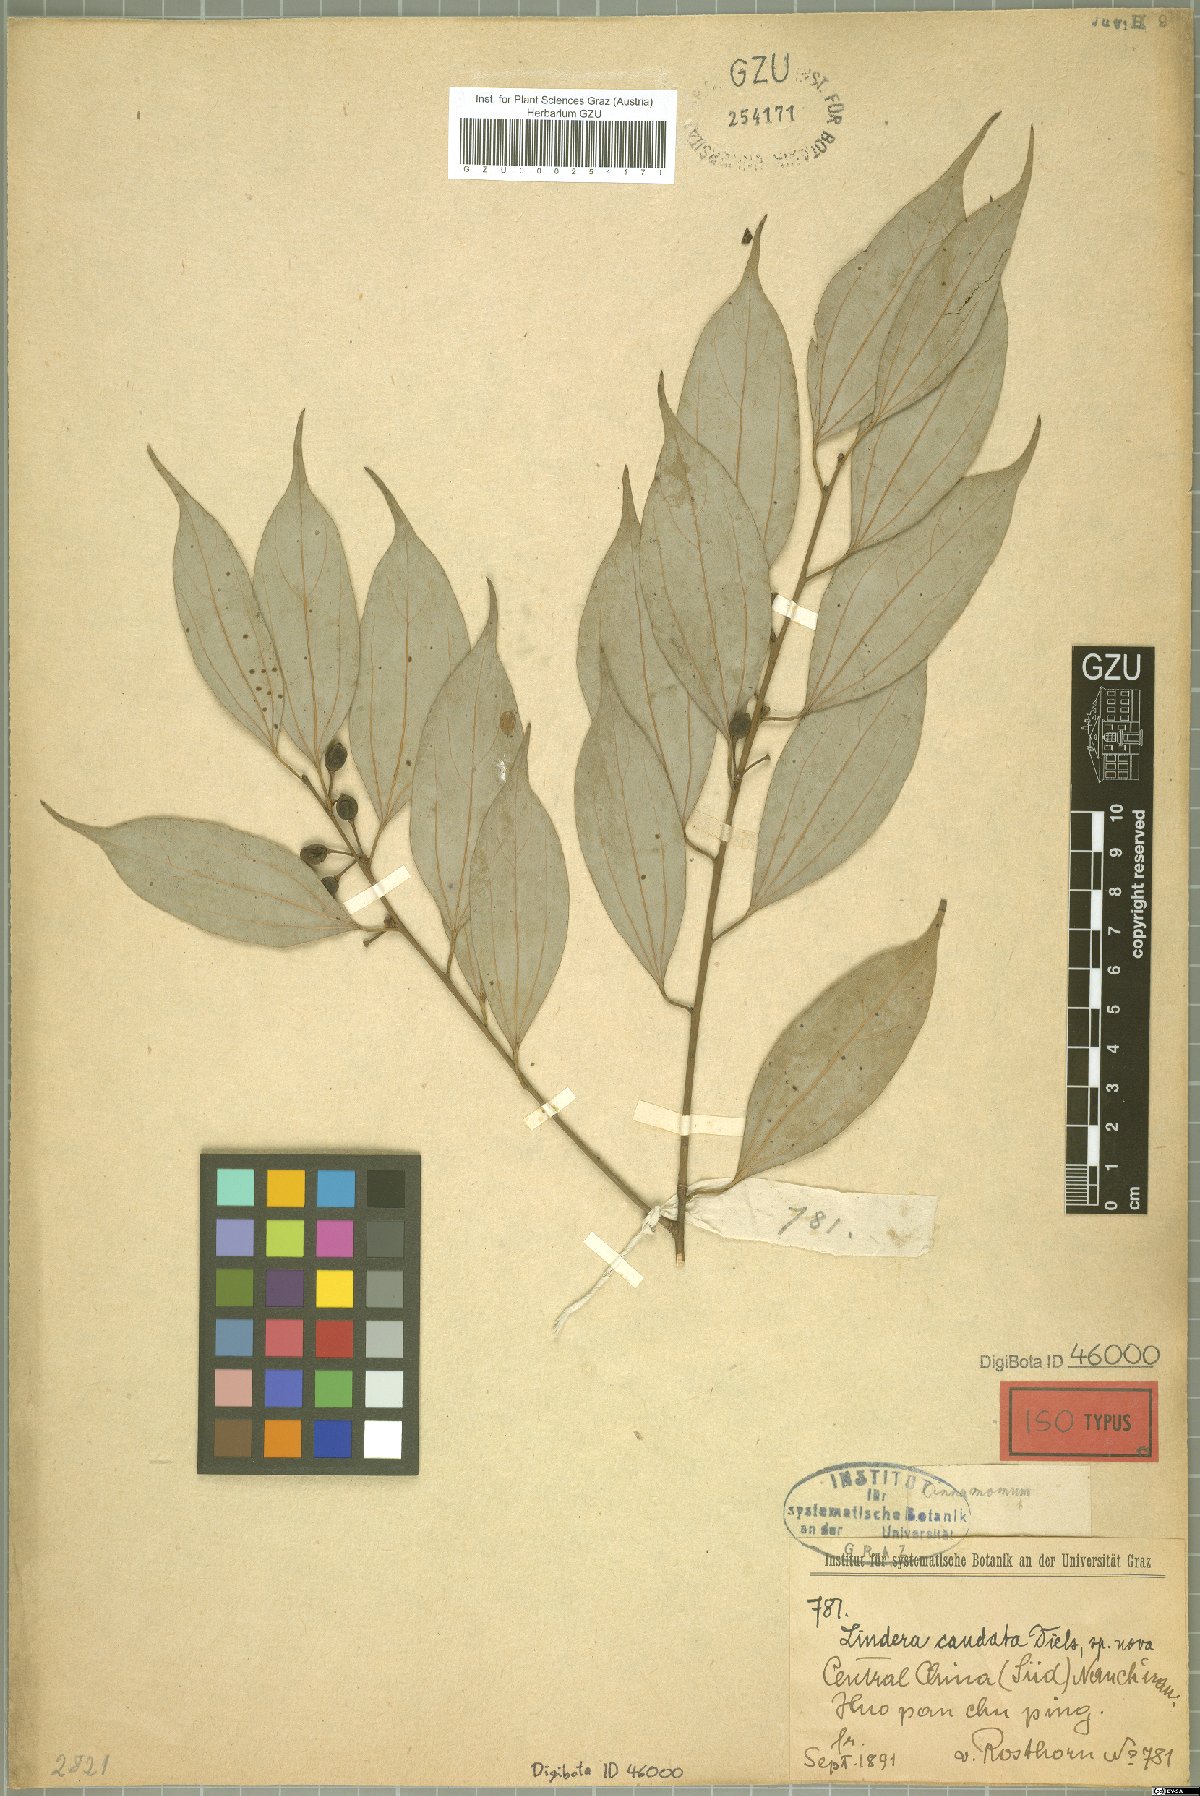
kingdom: Plantae
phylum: Tracheophyta
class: Magnoliopsida
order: Laurales
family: Lauraceae
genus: Lindera
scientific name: Lindera pulcherrima
